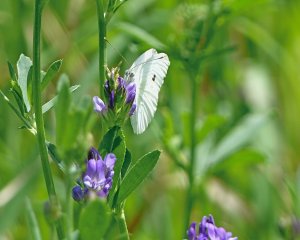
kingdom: Animalia
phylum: Arthropoda
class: Insecta
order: Lepidoptera
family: Pieridae
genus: Pieris
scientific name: Pieris rapae
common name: Cabbage White
